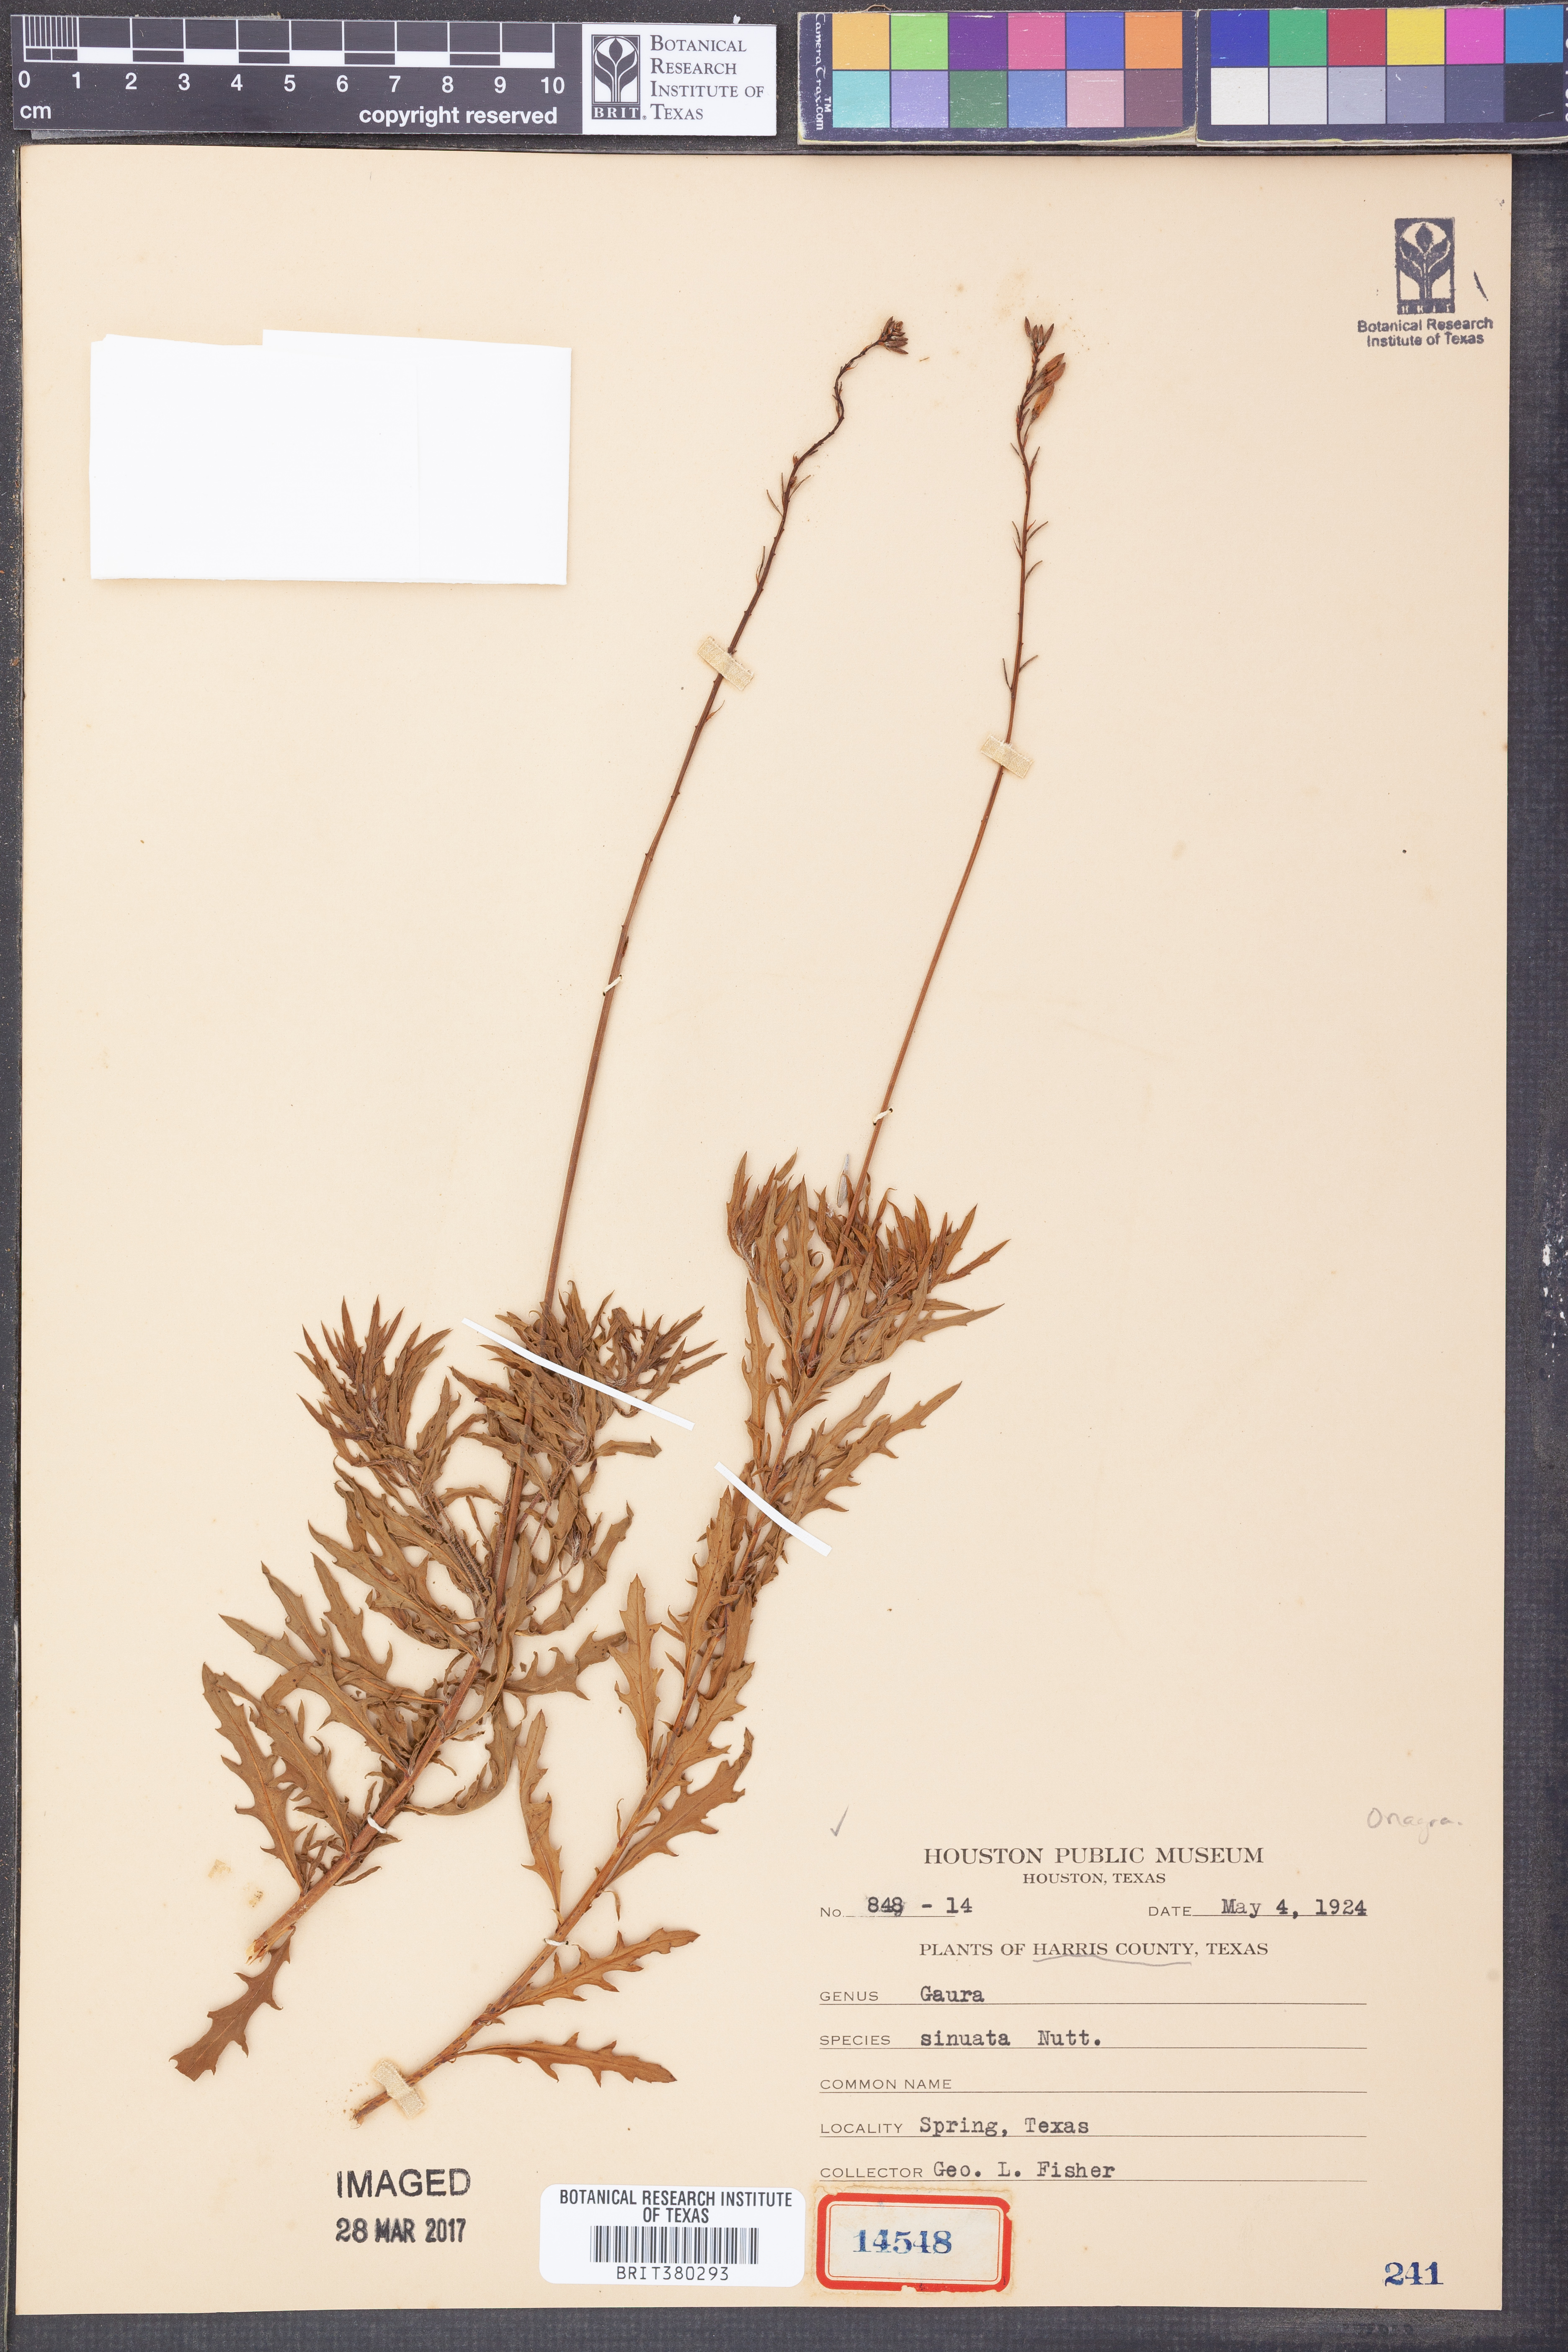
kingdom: Plantae
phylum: Tracheophyta
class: Magnoliopsida
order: Myrtales
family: Onagraceae
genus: Oenothera
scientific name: Oenothera sinuosa
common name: Wavyleaf beeblossom
